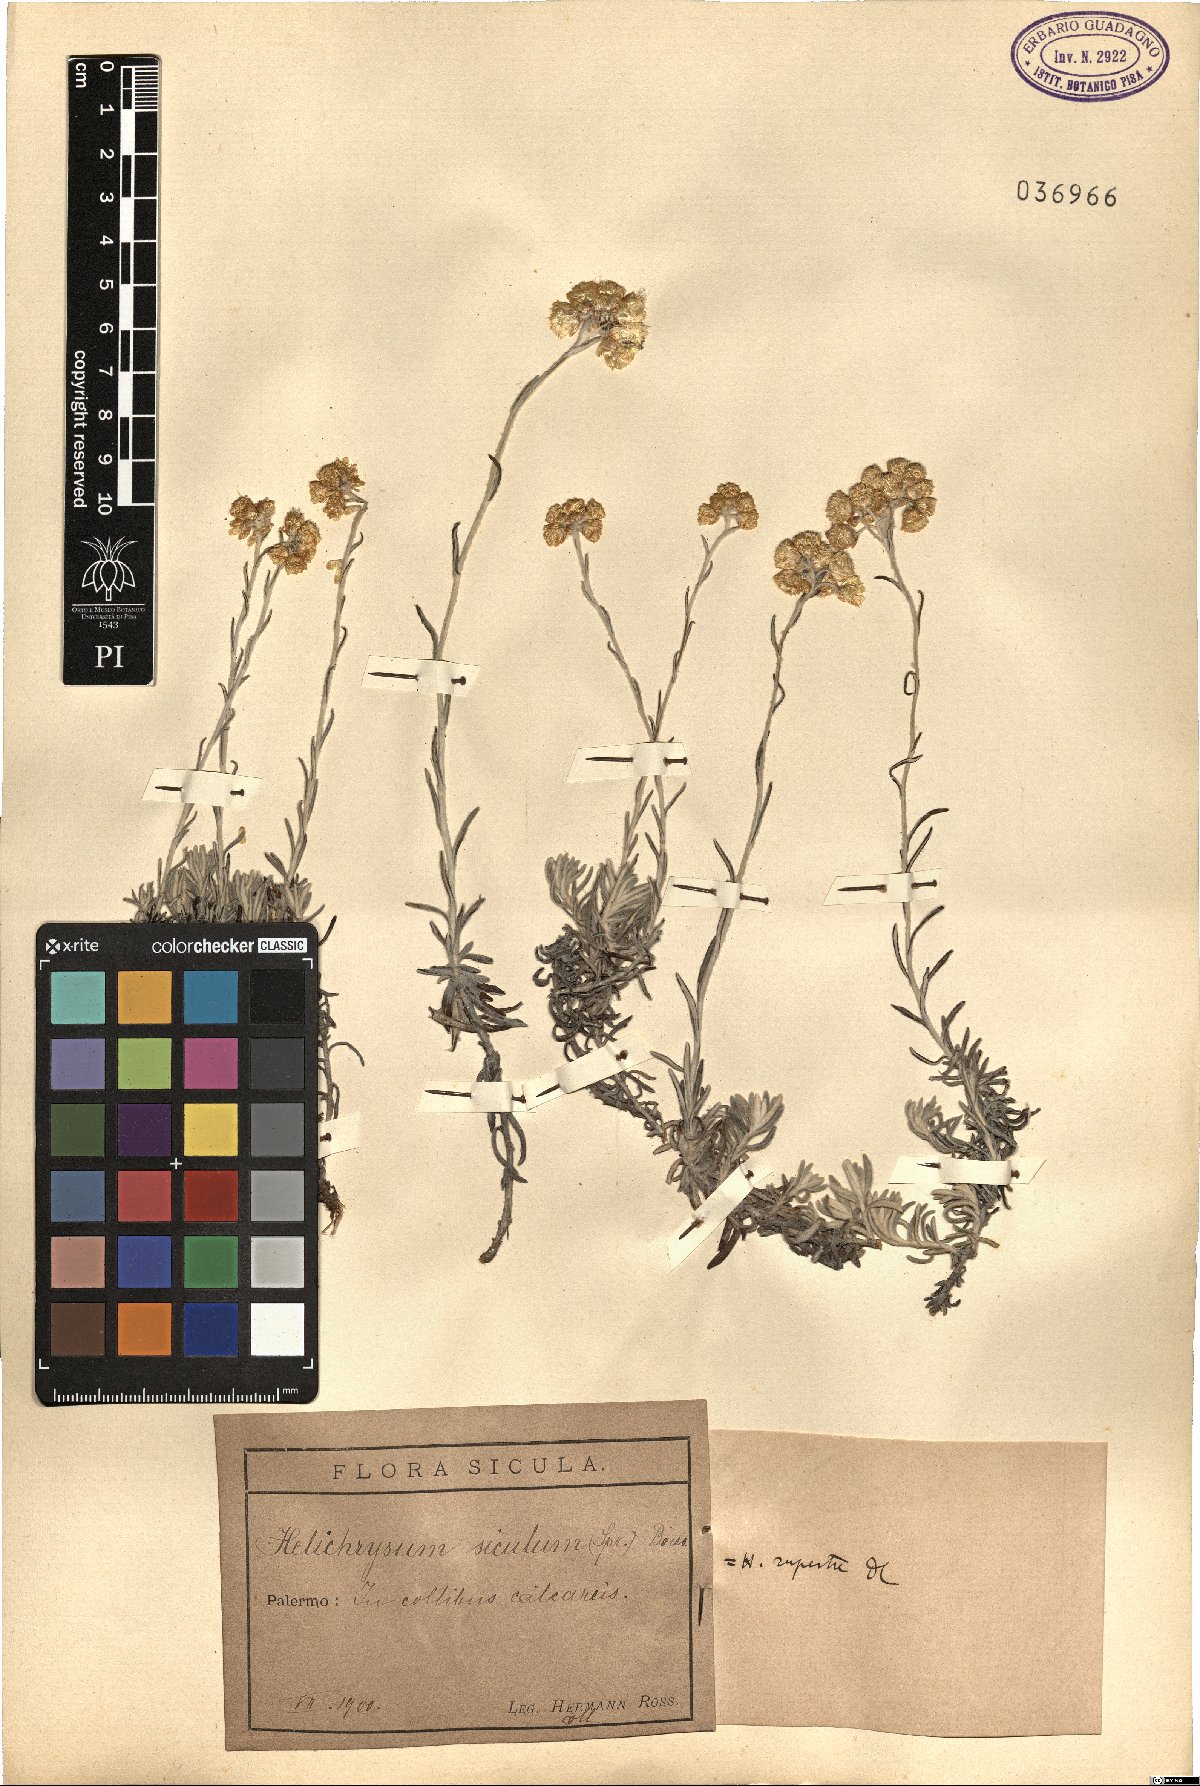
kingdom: Plantae
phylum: Tracheophyta
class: Magnoliopsida
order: Asterales
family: Asteraceae
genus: Helichrysum
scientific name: Helichrysum panormitanum
